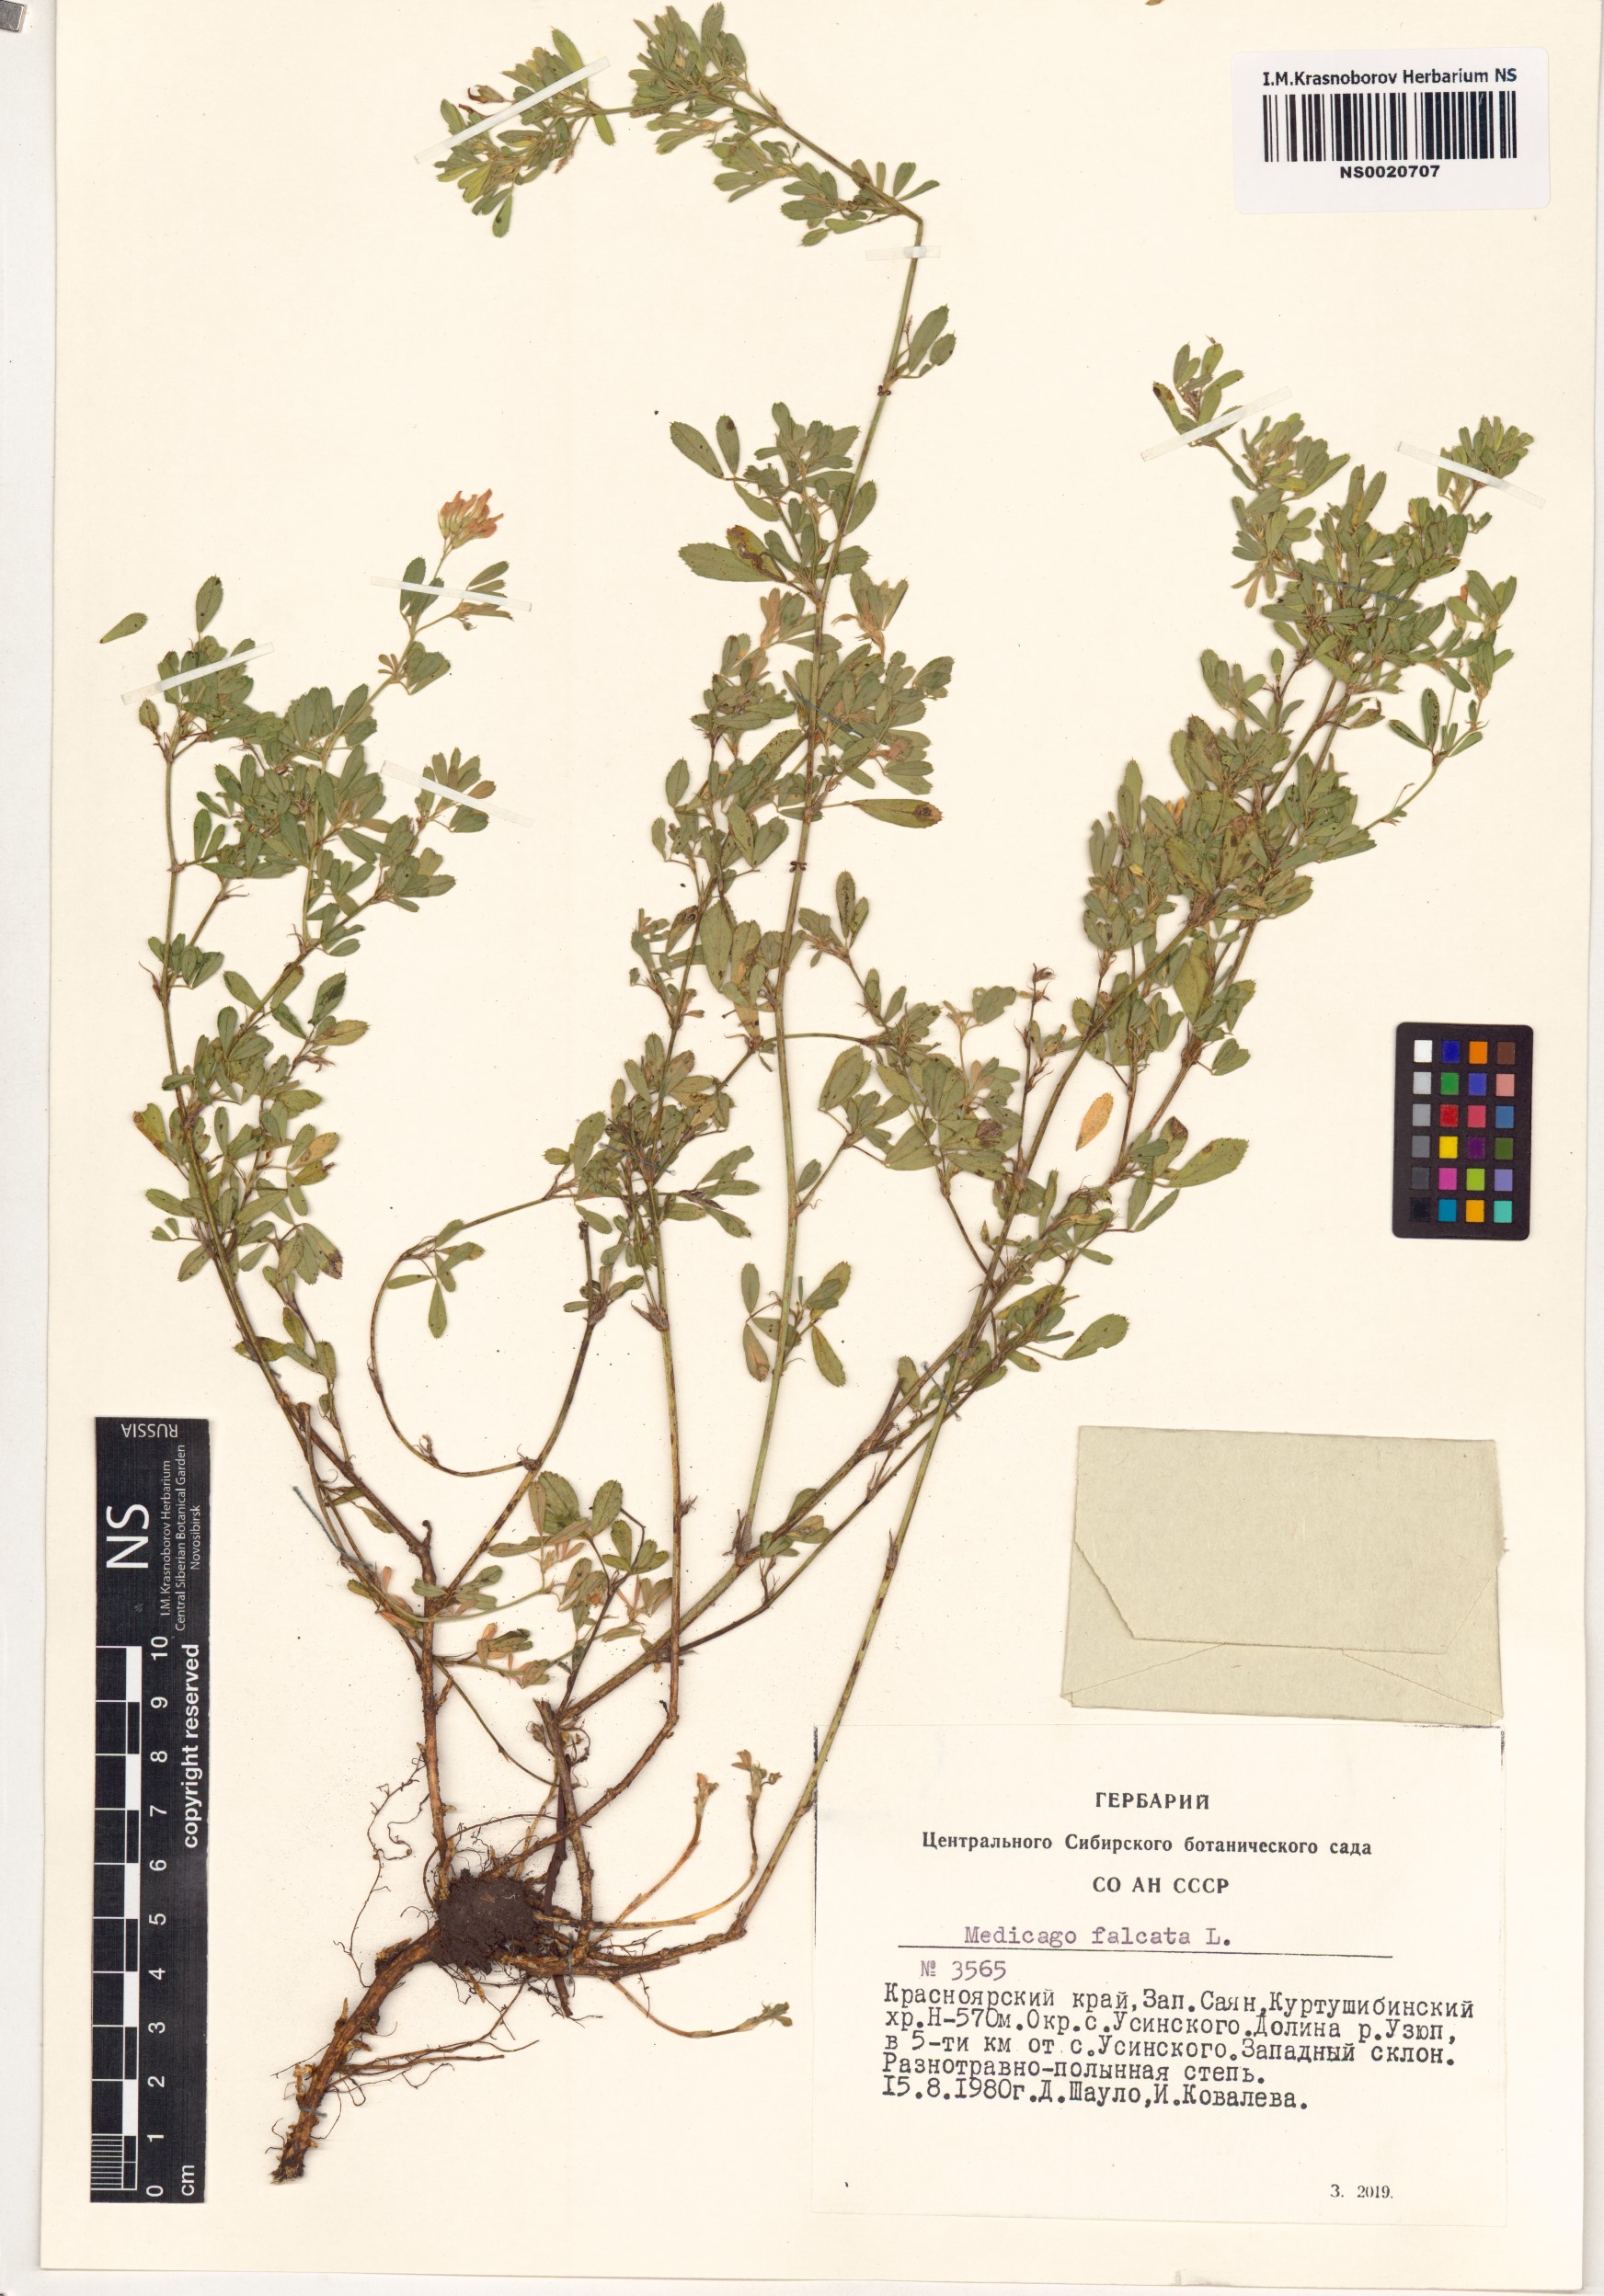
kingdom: Plantae
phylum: Tracheophyta
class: Magnoliopsida
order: Fabales
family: Fabaceae
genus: Medicago
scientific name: Medicago falcata
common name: Sickle medick
